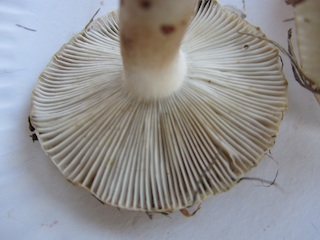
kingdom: Fungi
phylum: Basidiomycota
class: Agaricomycetes
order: Russulales
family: Russulaceae
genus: Russula
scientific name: Russula recondita
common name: mild kam-skørhat
